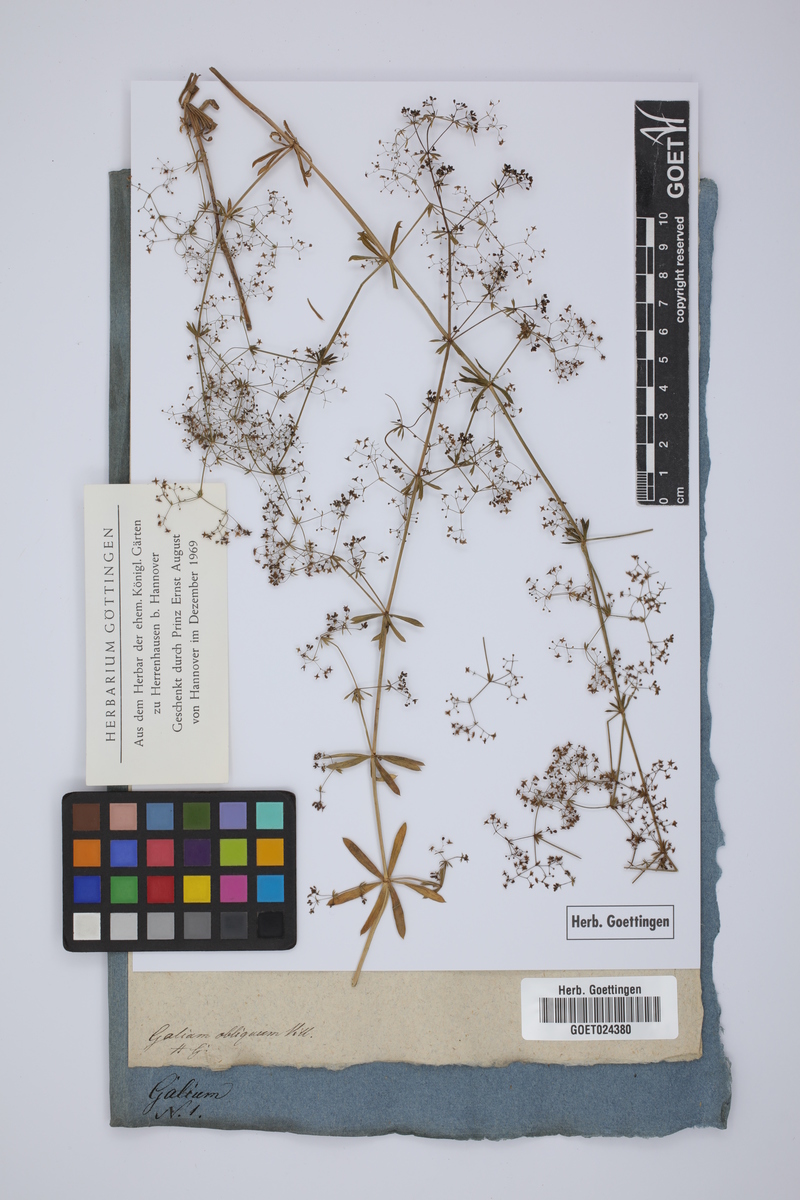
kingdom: Plantae
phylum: Tracheophyta
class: Magnoliopsida
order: Gentianales
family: Rubiaceae
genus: Galium
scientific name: Galium obliquum
